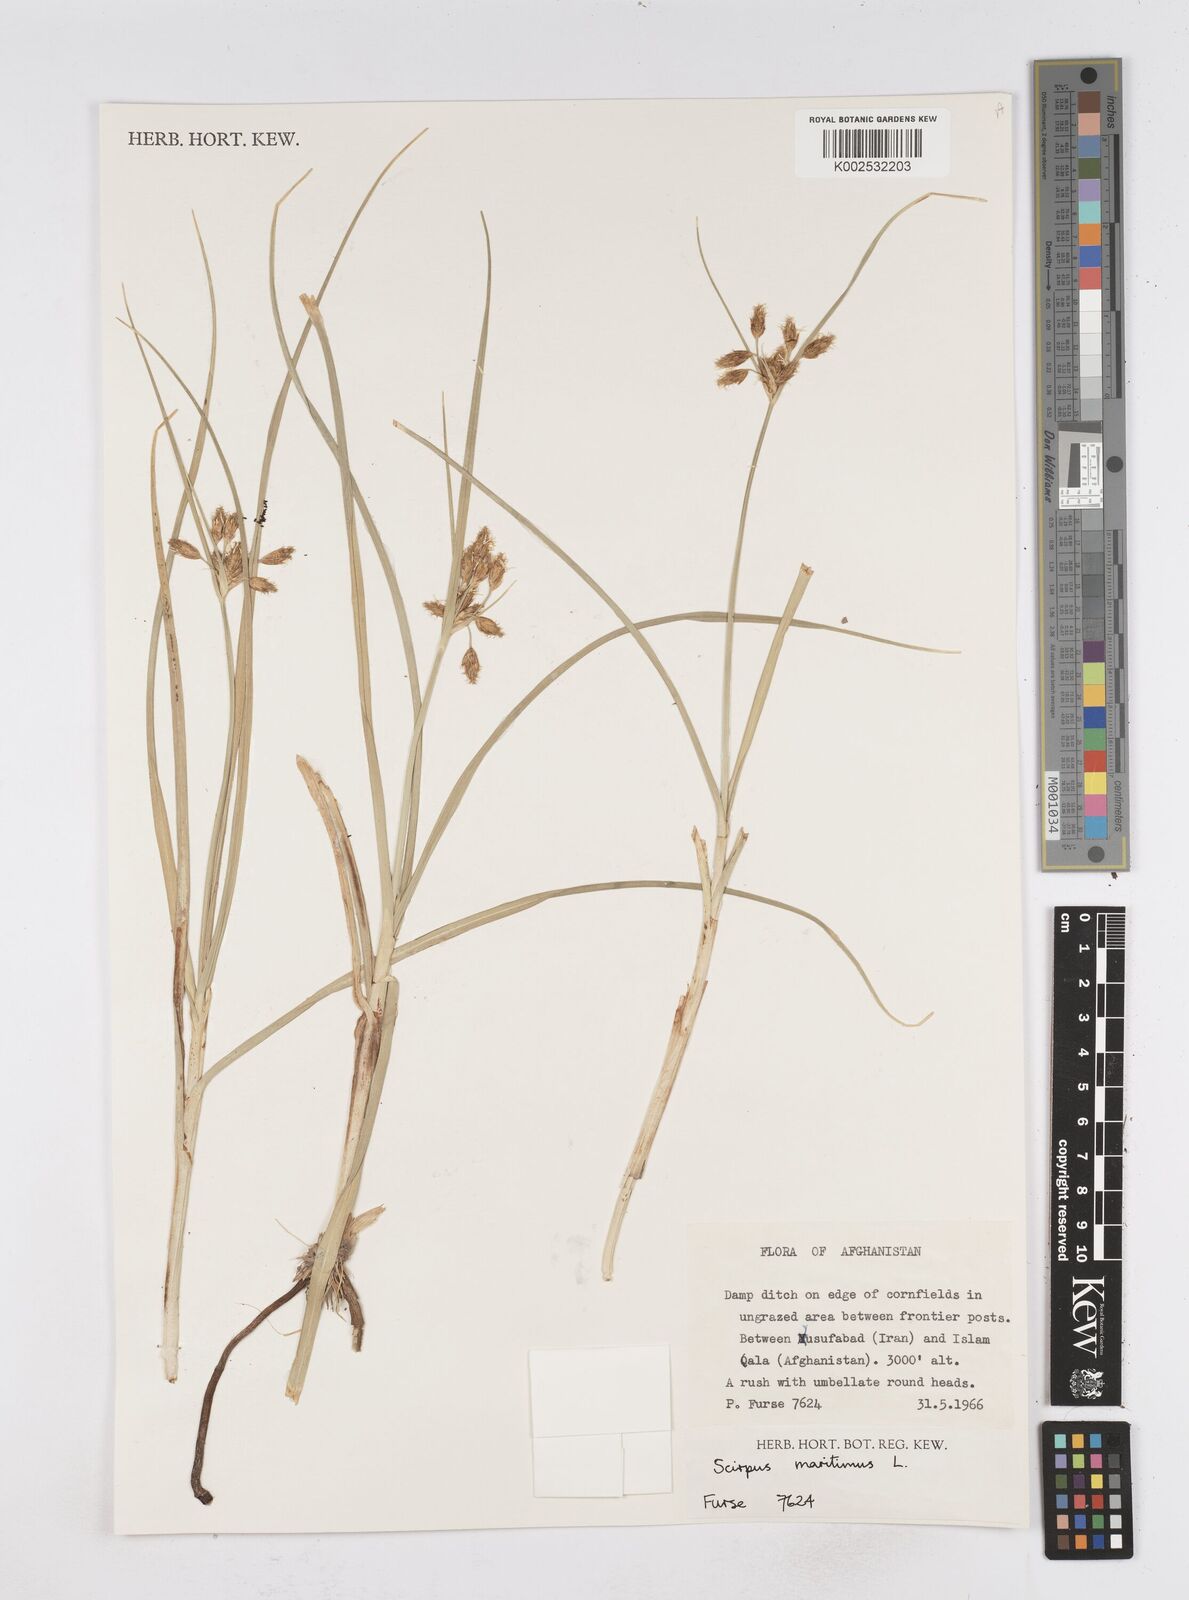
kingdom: Plantae
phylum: Tracheophyta
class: Liliopsida
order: Poales
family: Cyperaceae
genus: Bolboschoenus
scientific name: Bolboschoenus maritimus
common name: Sea club-rush
